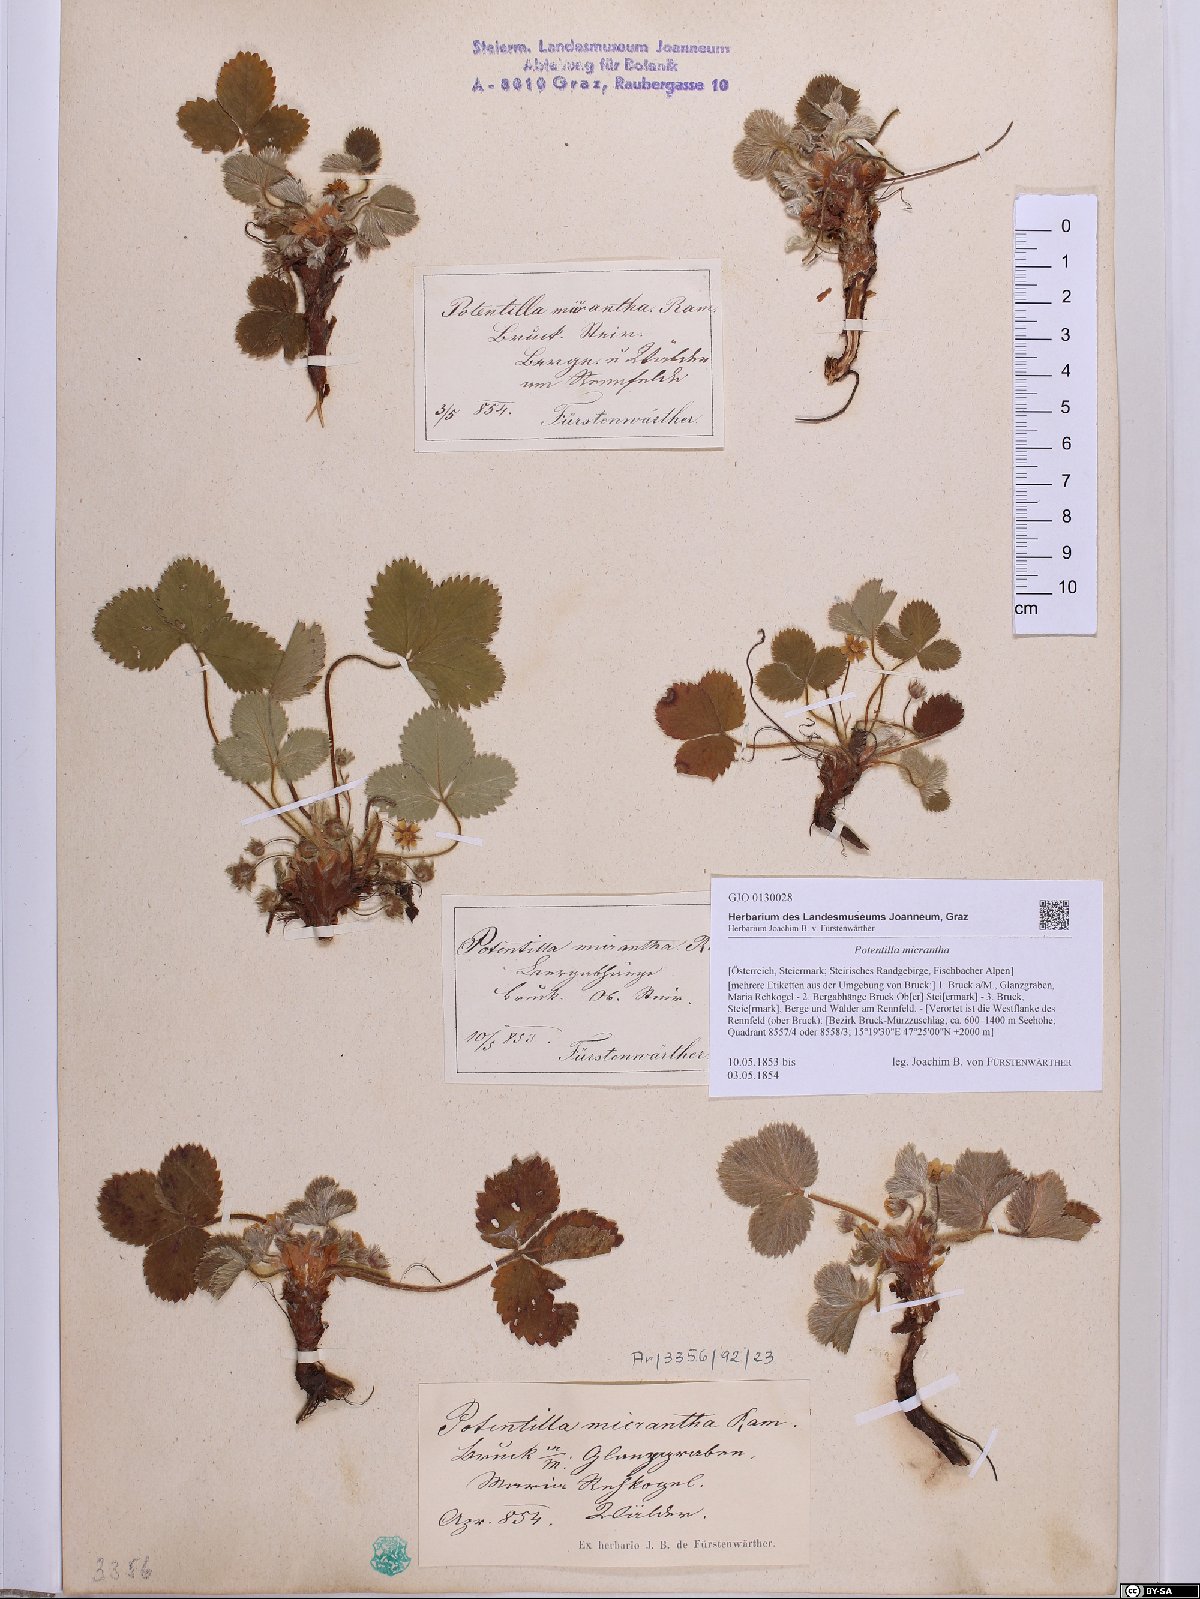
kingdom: Plantae
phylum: Tracheophyta
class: Magnoliopsida
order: Rosales
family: Rosaceae
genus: Potentilla
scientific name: Potentilla micrantha
